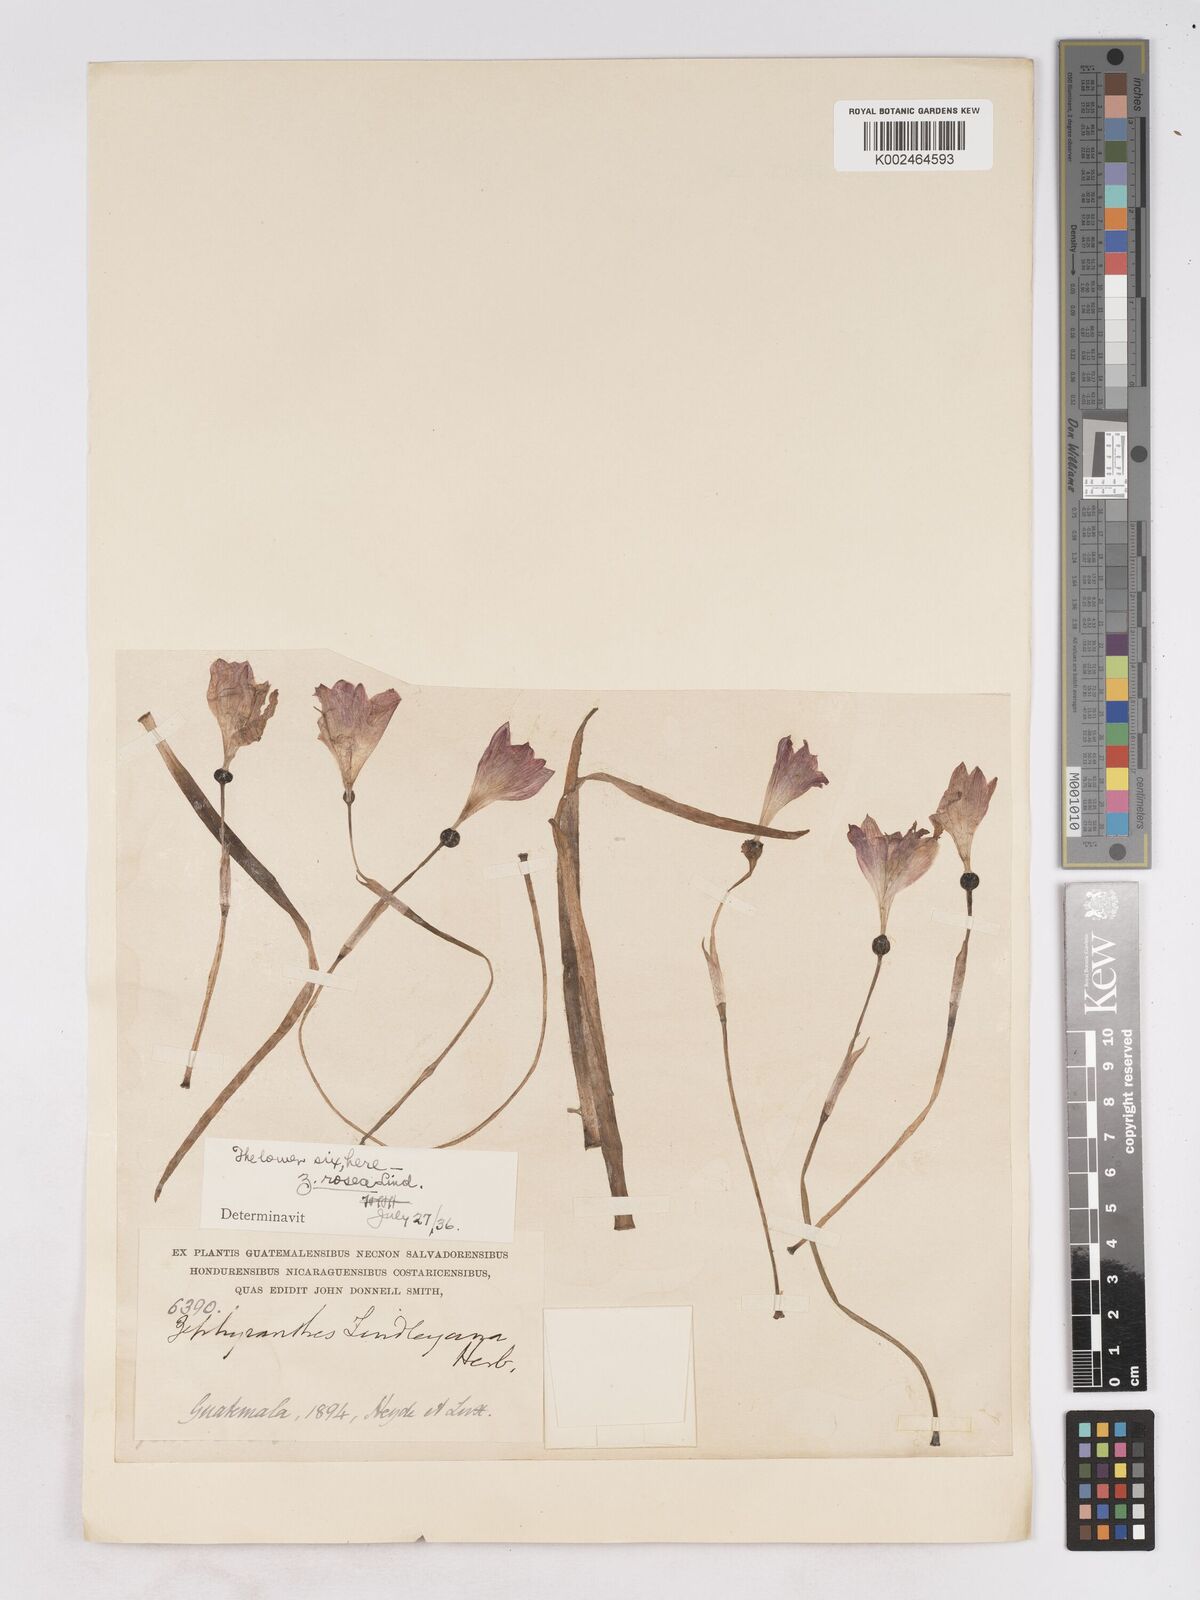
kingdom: Plantae
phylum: Tracheophyta
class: Liliopsida
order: Asparagales
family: Amaryllidaceae
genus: Zephyranthes
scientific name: Zephyranthes rosea
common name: Cuban zephyrlily
